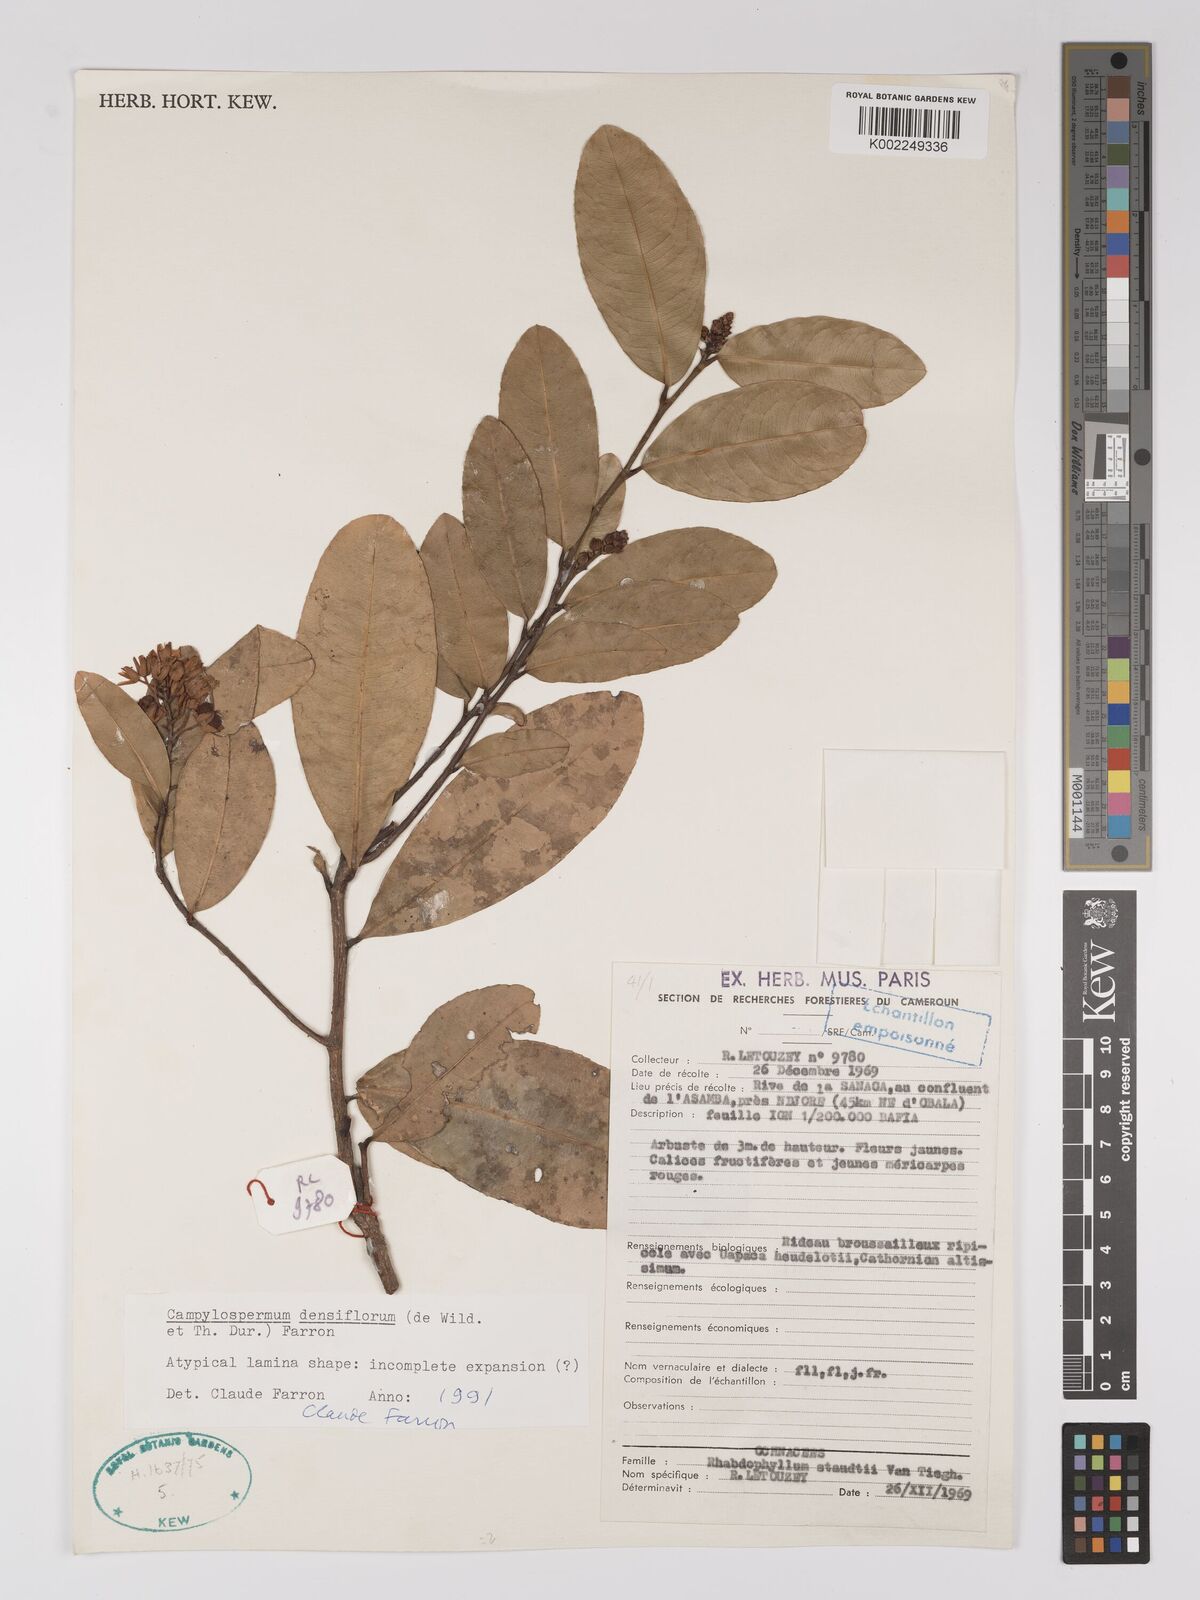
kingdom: Plantae
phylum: Tracheophyta
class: Magnoliopsida
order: Malpighiales
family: Ochnaceae
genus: Gomphia
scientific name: Gomphia densiflora
